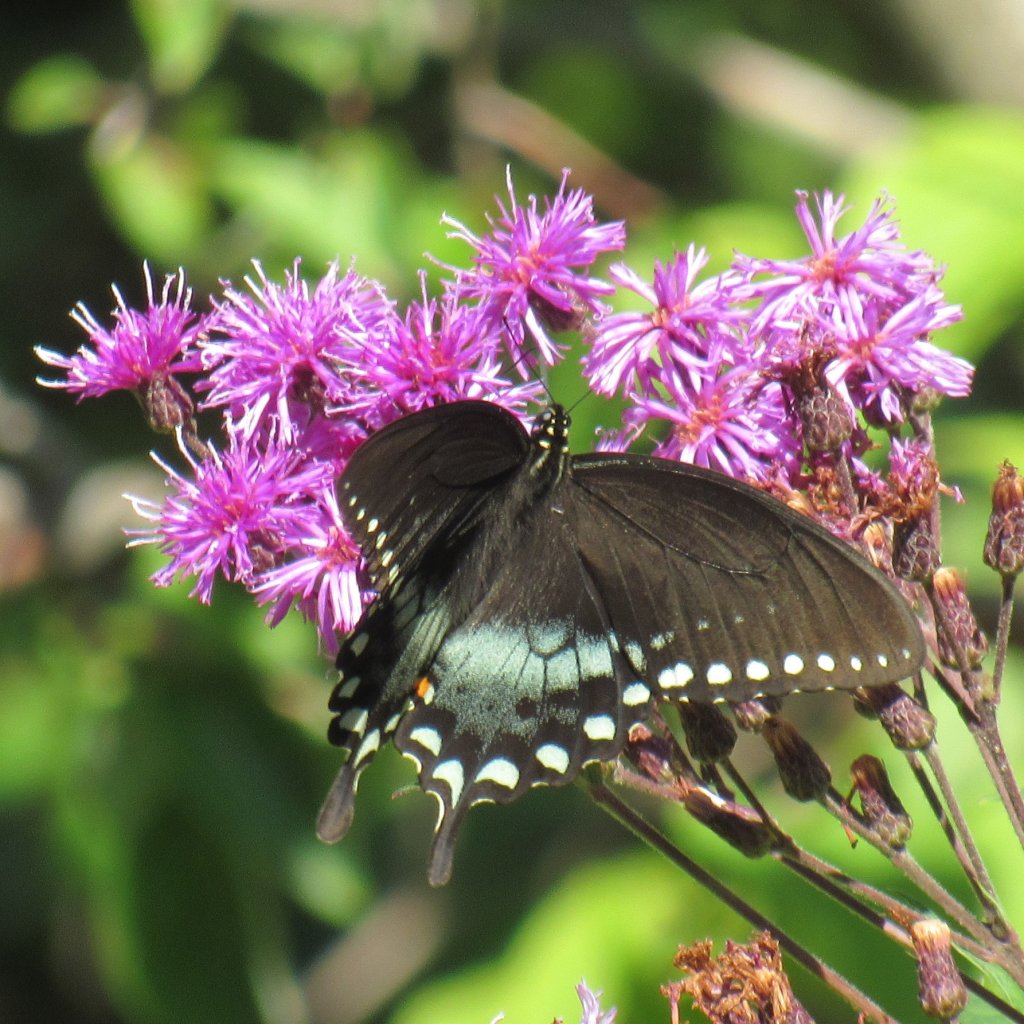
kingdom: Animalia
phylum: Arthropoda
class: Insecta
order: Lepidoptera
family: Papilionidae
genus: Pterourus
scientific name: Pterourus troilus
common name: Spicebush Swallowtail
